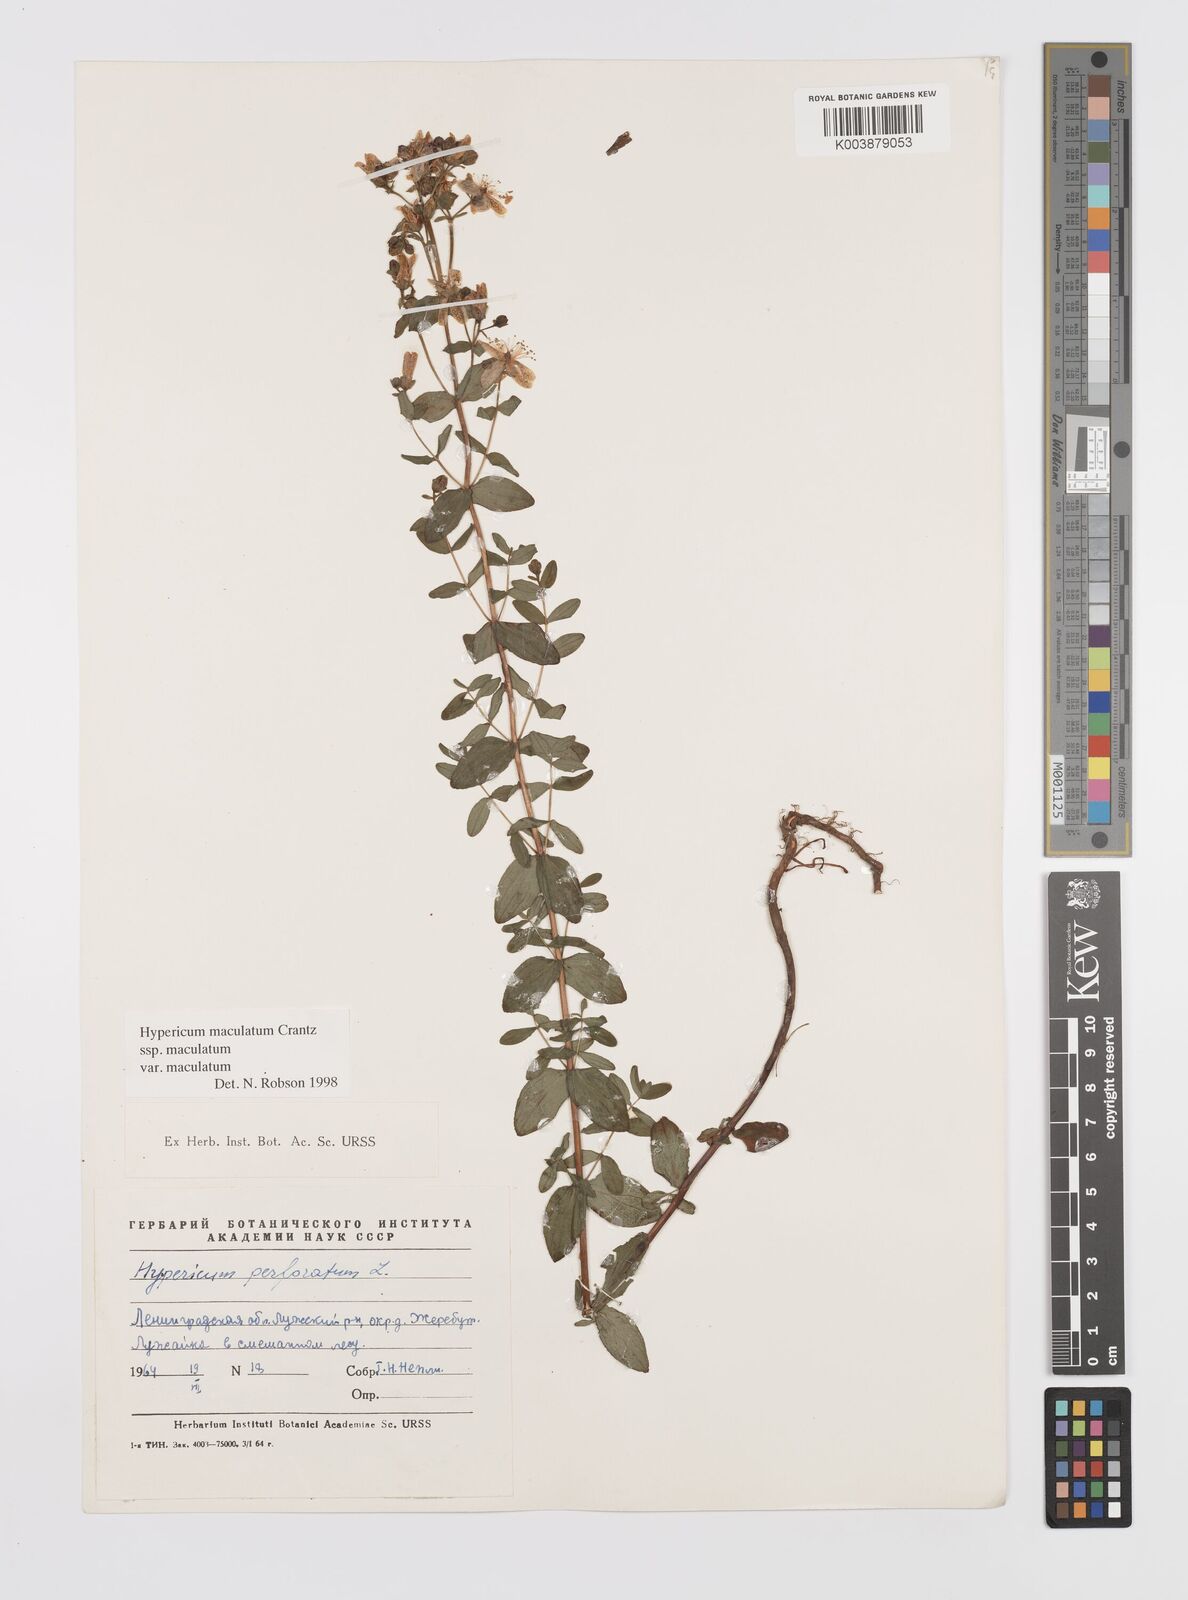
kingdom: Plantae
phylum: Tracheophyta
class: Magnoliopsida
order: Malpighiales
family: Hypericaceae
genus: Hypericum
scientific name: Hypericum maculatum
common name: Imperforate st. john's-wort
